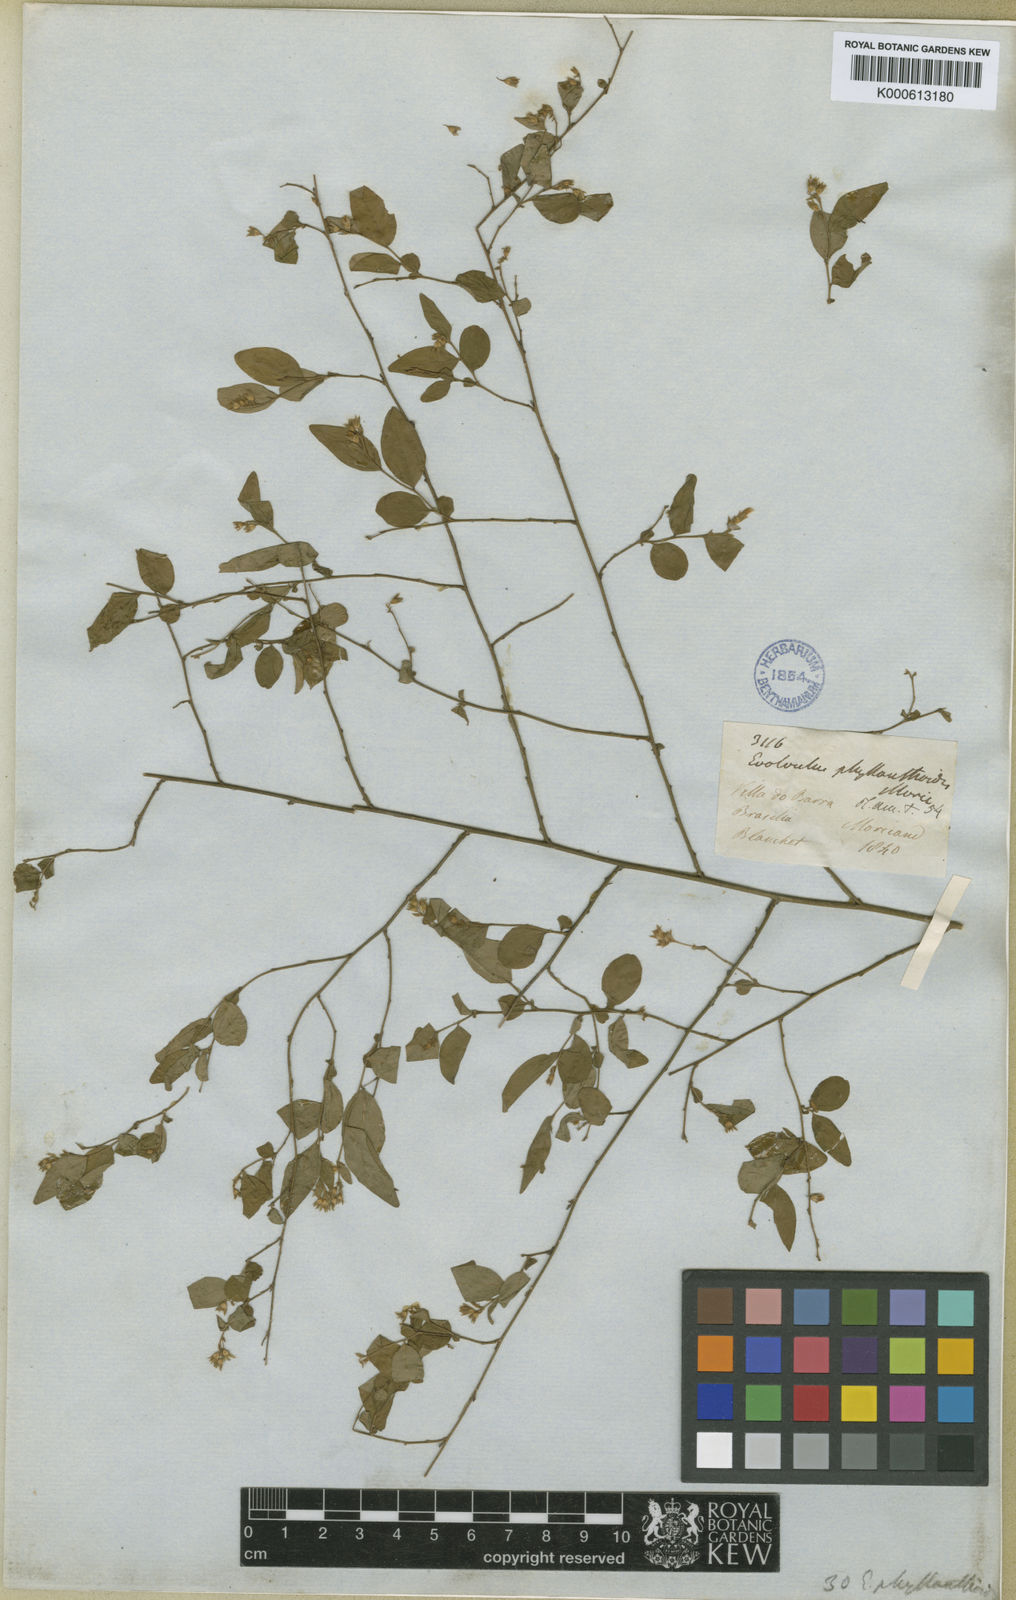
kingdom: Plantae
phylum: Tracheophyta
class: Magnoliopsida
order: Solanales
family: Convolvulaceae
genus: Evolvulus
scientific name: Evolvulus phyllanthoides
